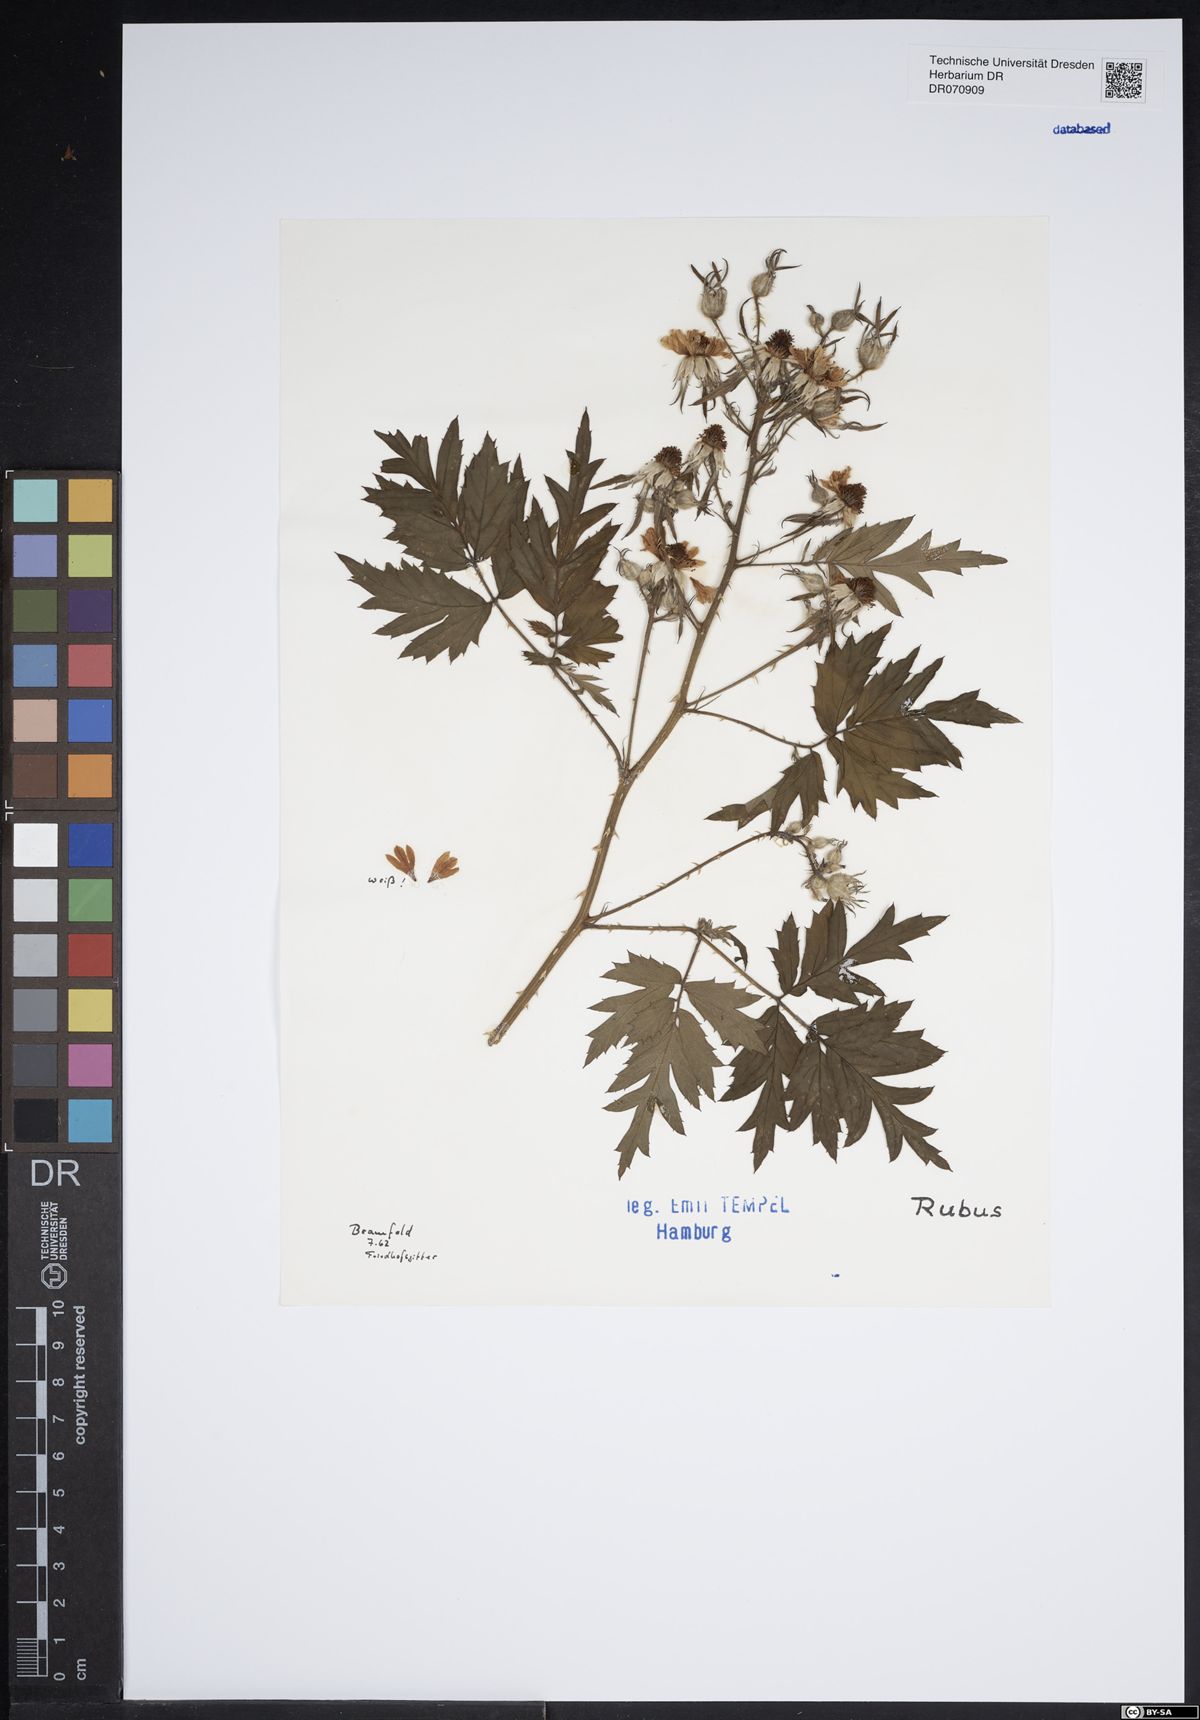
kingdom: Plantae
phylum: Tracheophyta
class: Magnoliopsida
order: Rosales
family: Rosaceae
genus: Rubus
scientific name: Rubus
